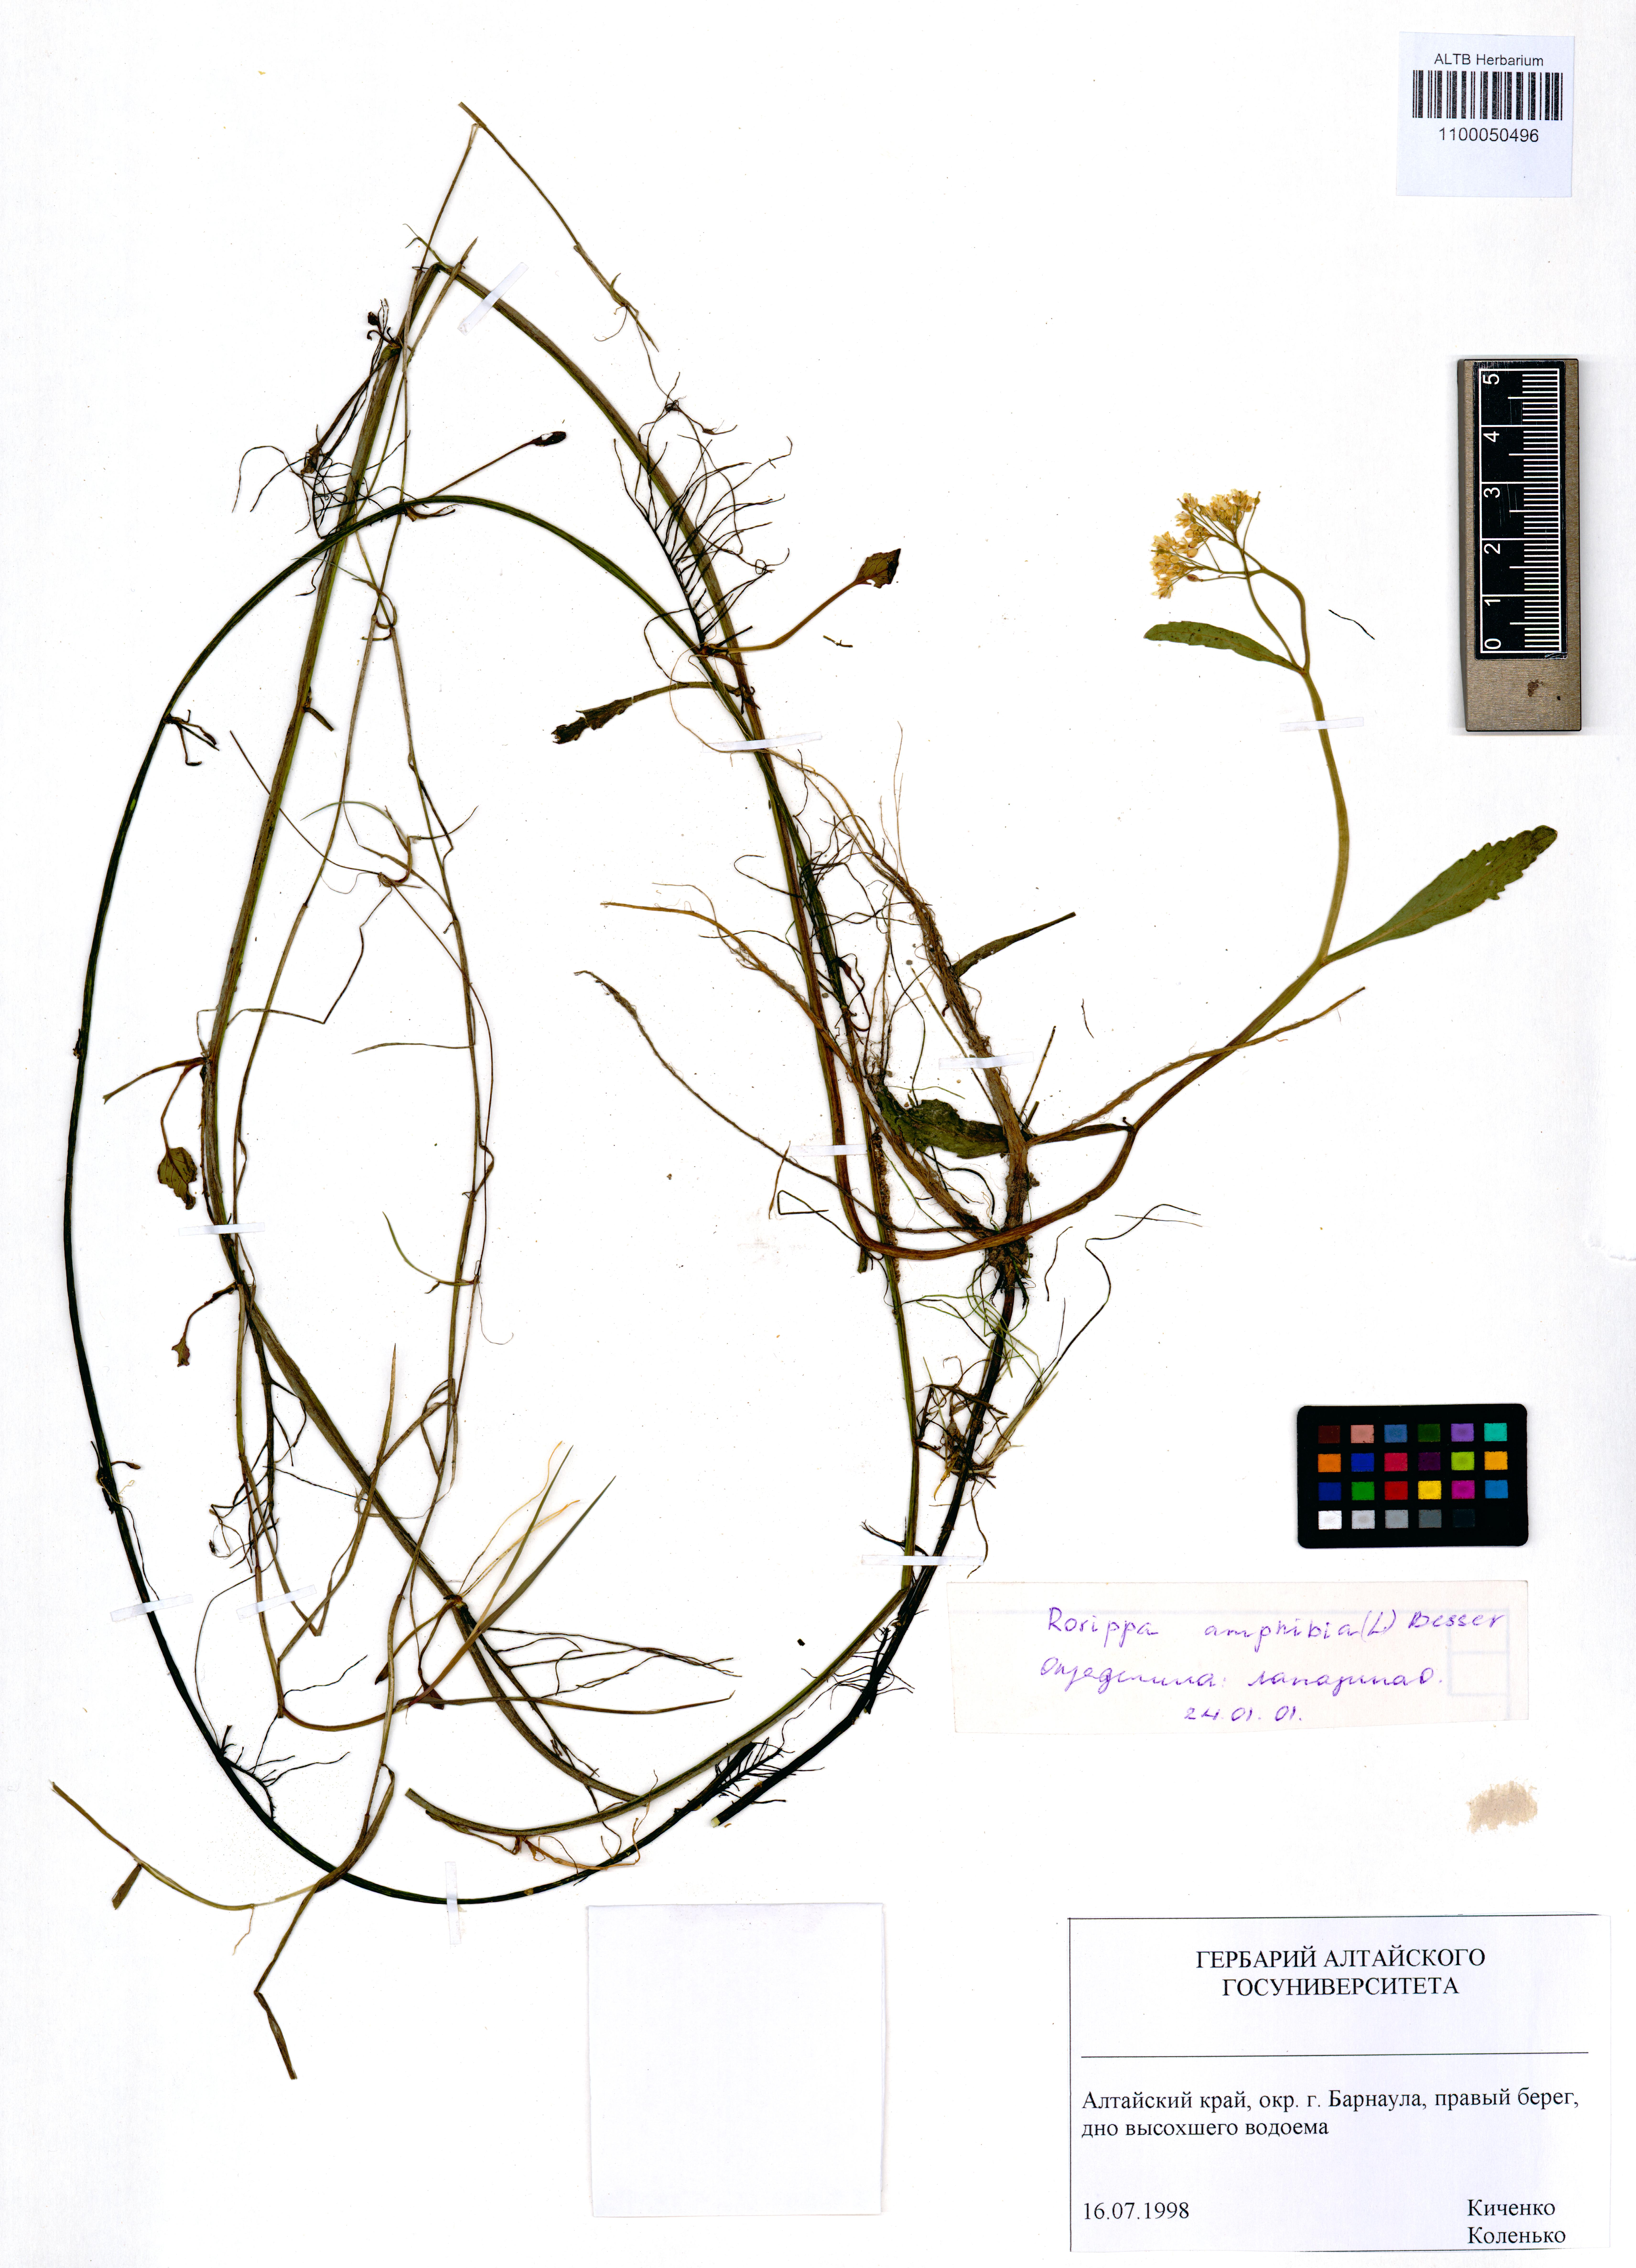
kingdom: Plantae
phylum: Tracheophyta
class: Magnoliopsida
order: Brassicales
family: Brassicaceae
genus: Rorippa
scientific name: Rorippa amphibia
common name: Great yellow-cress
